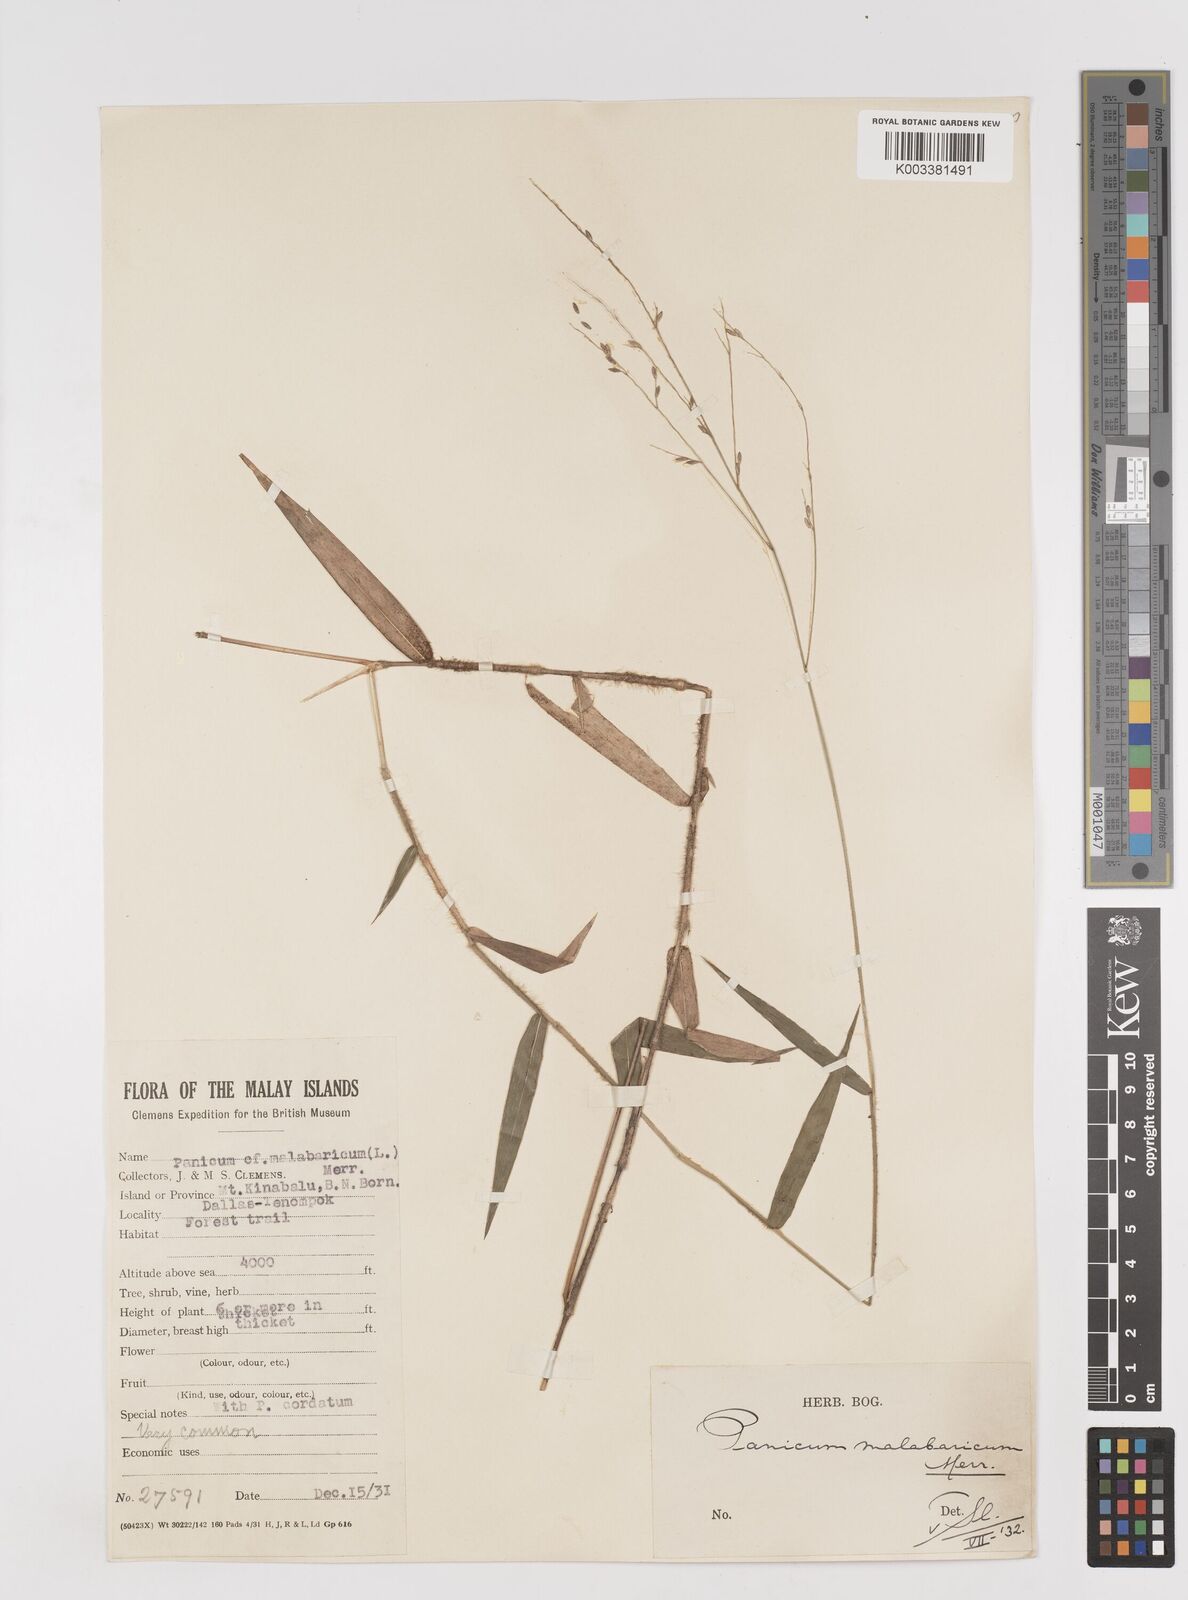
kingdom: Plantae
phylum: Tracheophyta
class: Liliopsida
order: Poales
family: Poaceae
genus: Ottochloa
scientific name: Ottochloa nodosa
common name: Slender-panic grass
